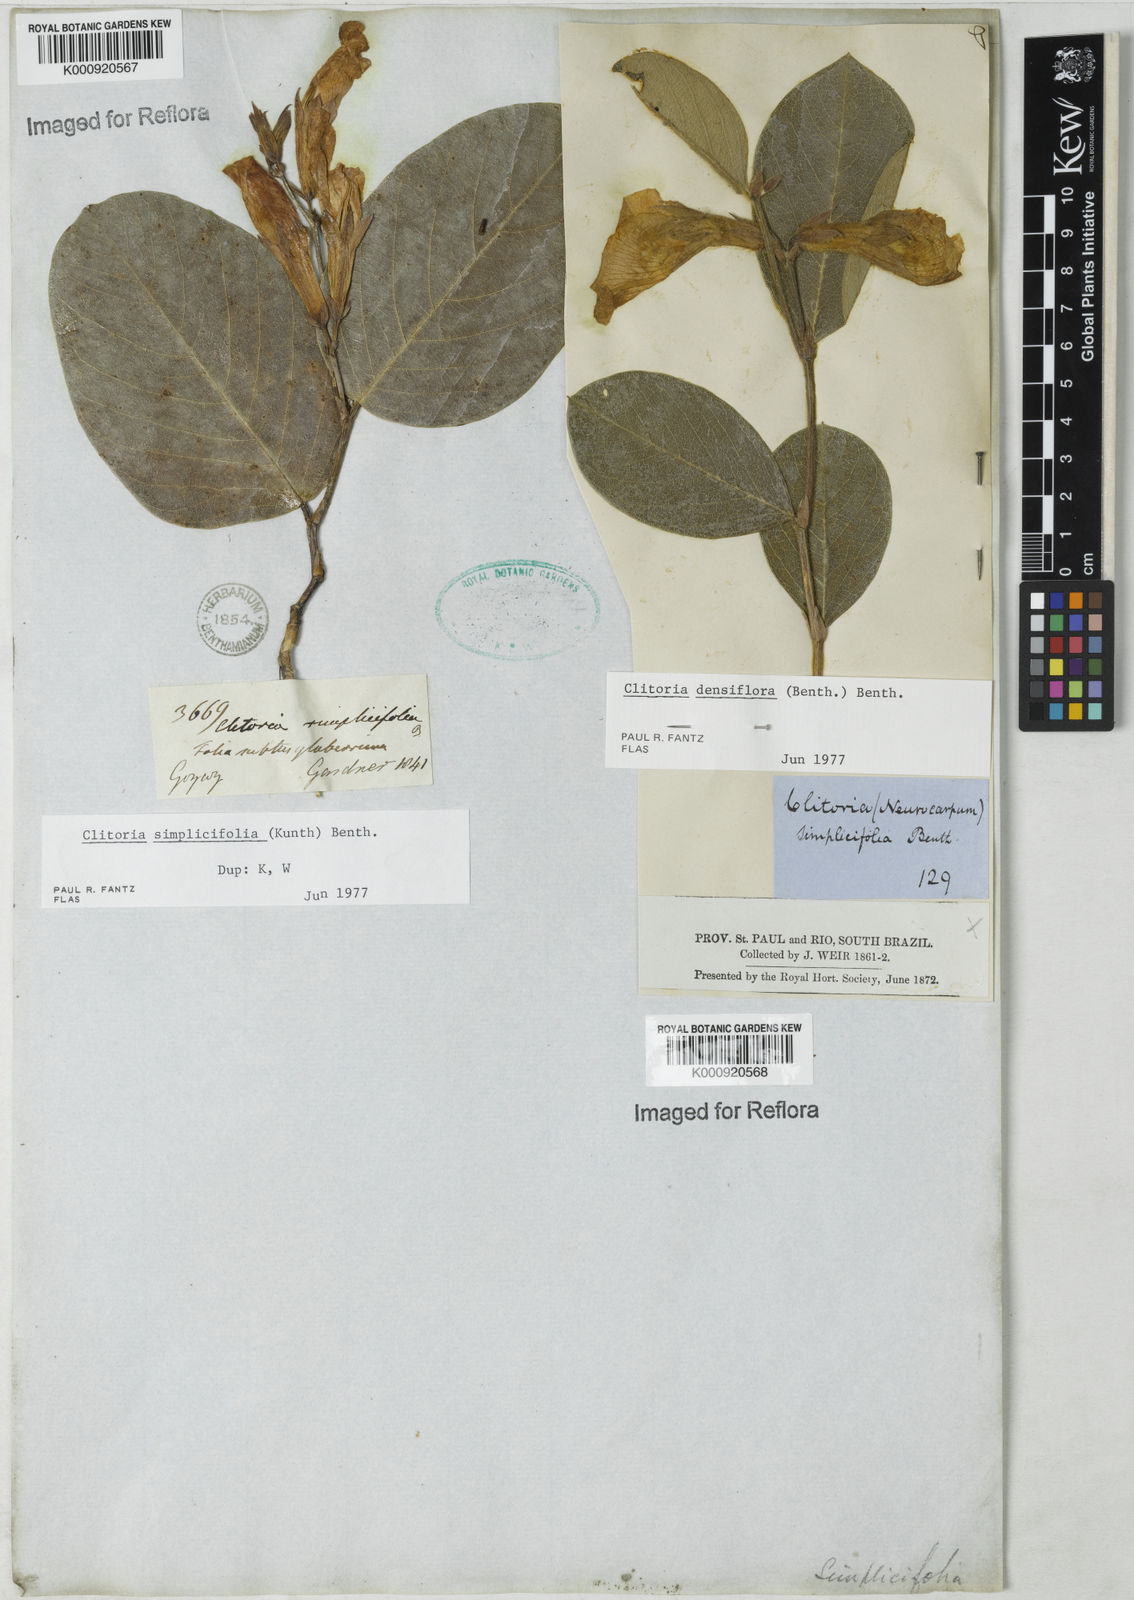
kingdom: Plantae
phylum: Tracheophyta
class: Magnoliopsida
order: Fabales
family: Fabaceae
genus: Clitoria
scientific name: Clitoria
